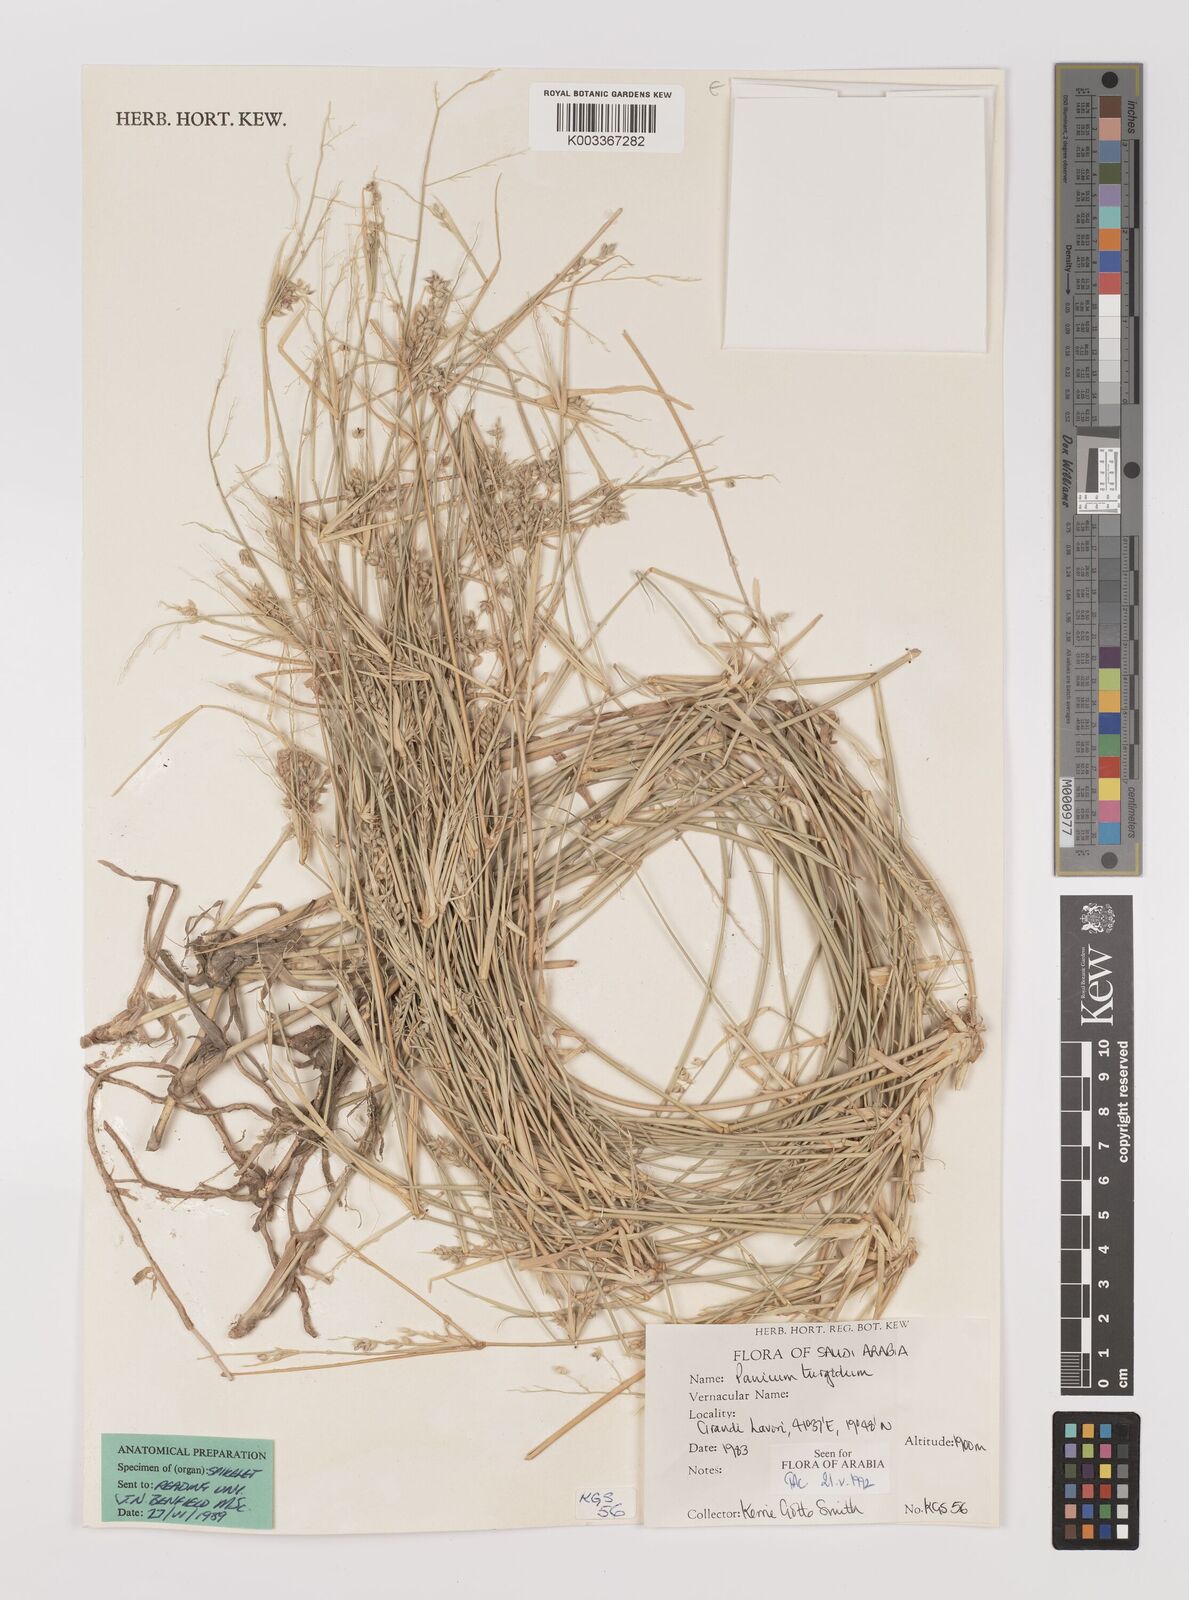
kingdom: Plantae
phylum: Tracheophyta
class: Liliopsida
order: Poales
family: Poaceae
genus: Panicum
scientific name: Panicum turgidum
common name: Desert grass
